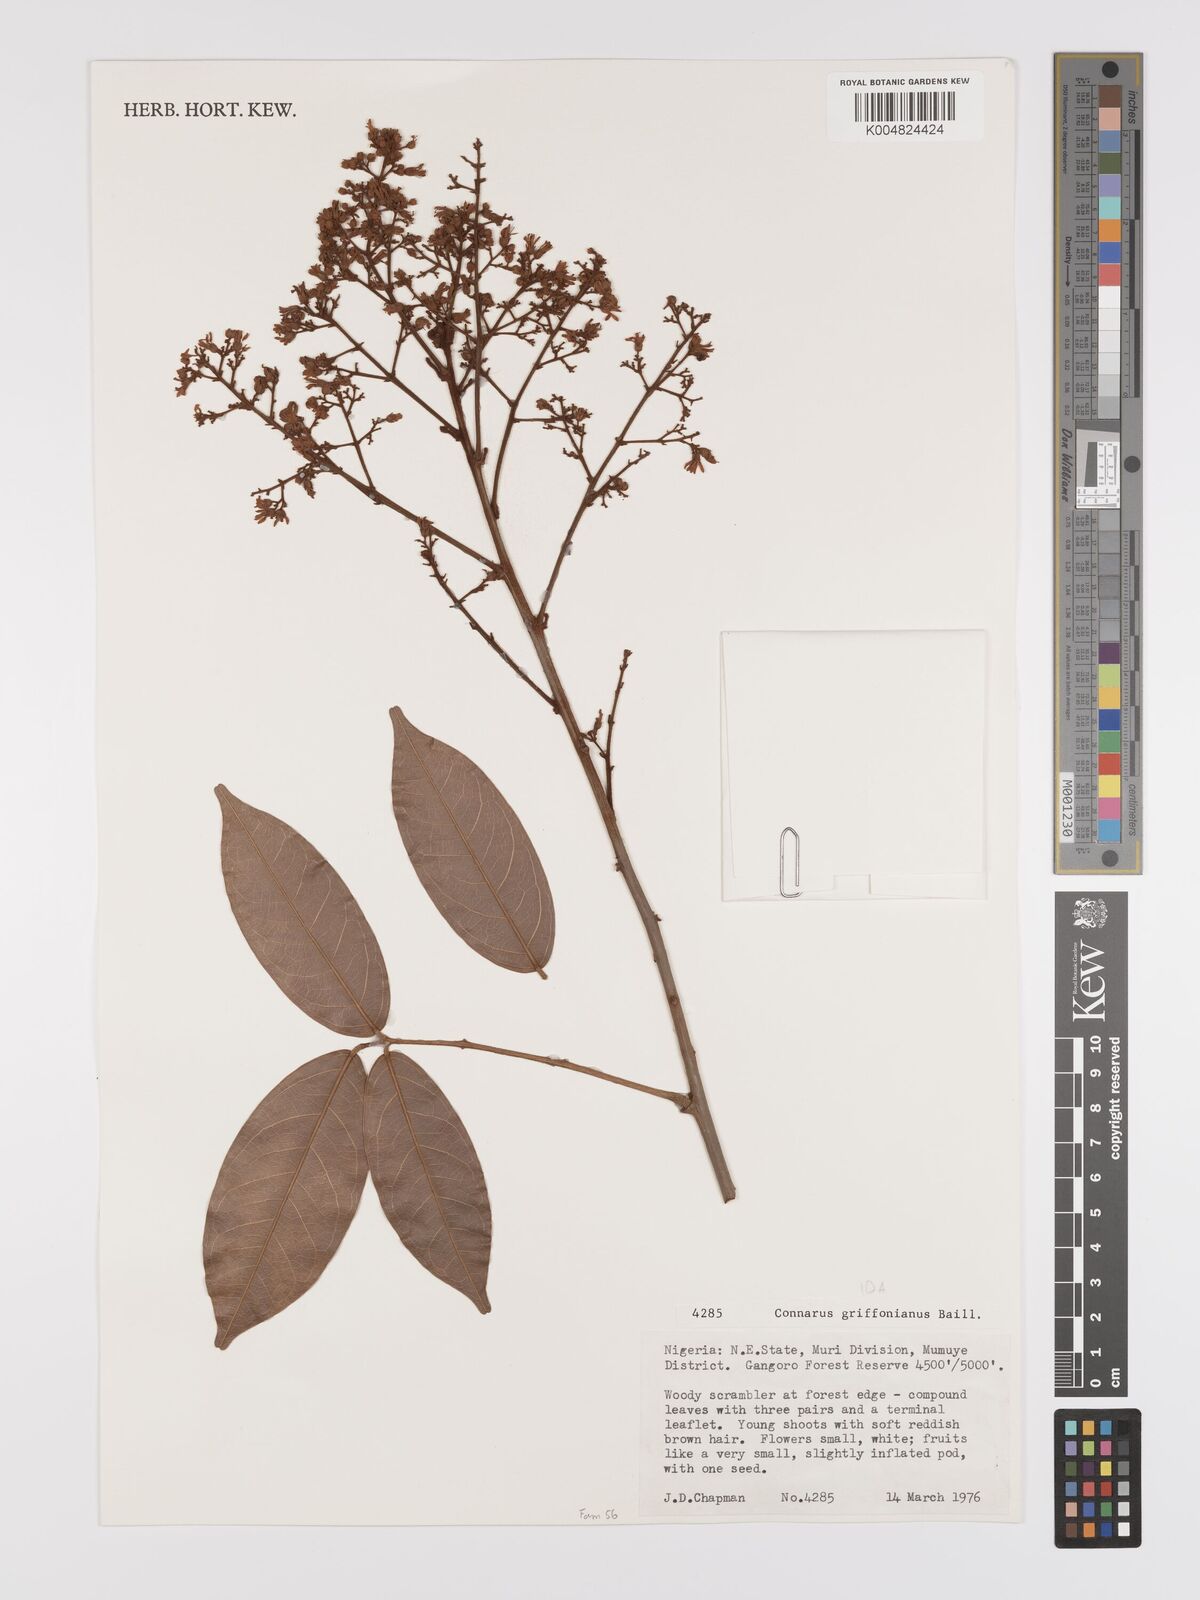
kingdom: Plantae
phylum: Tracheophyta
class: Magnoliopsida
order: Oxalidales
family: Connaraceae
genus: Connarus
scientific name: Connarus griffonianus
